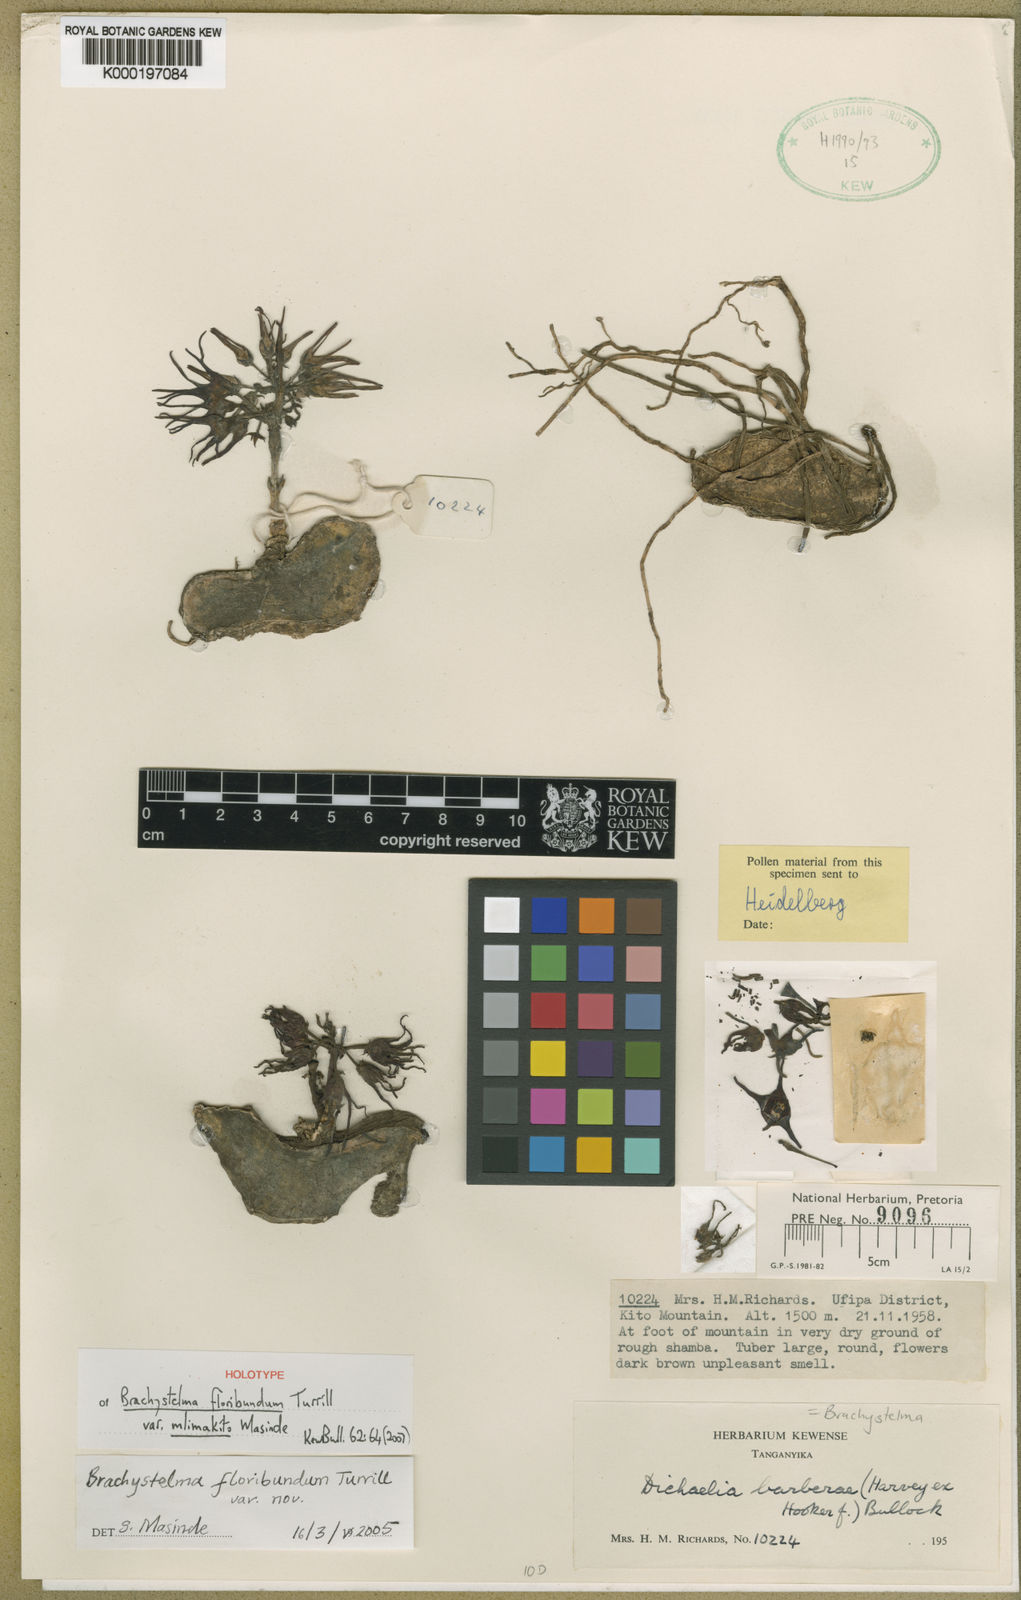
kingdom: Plantae
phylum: Tracheophyta
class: Magnoliopsida
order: Gentianales
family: Apocynaceae
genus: Ceropegia
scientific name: Ceropegia floribundior
